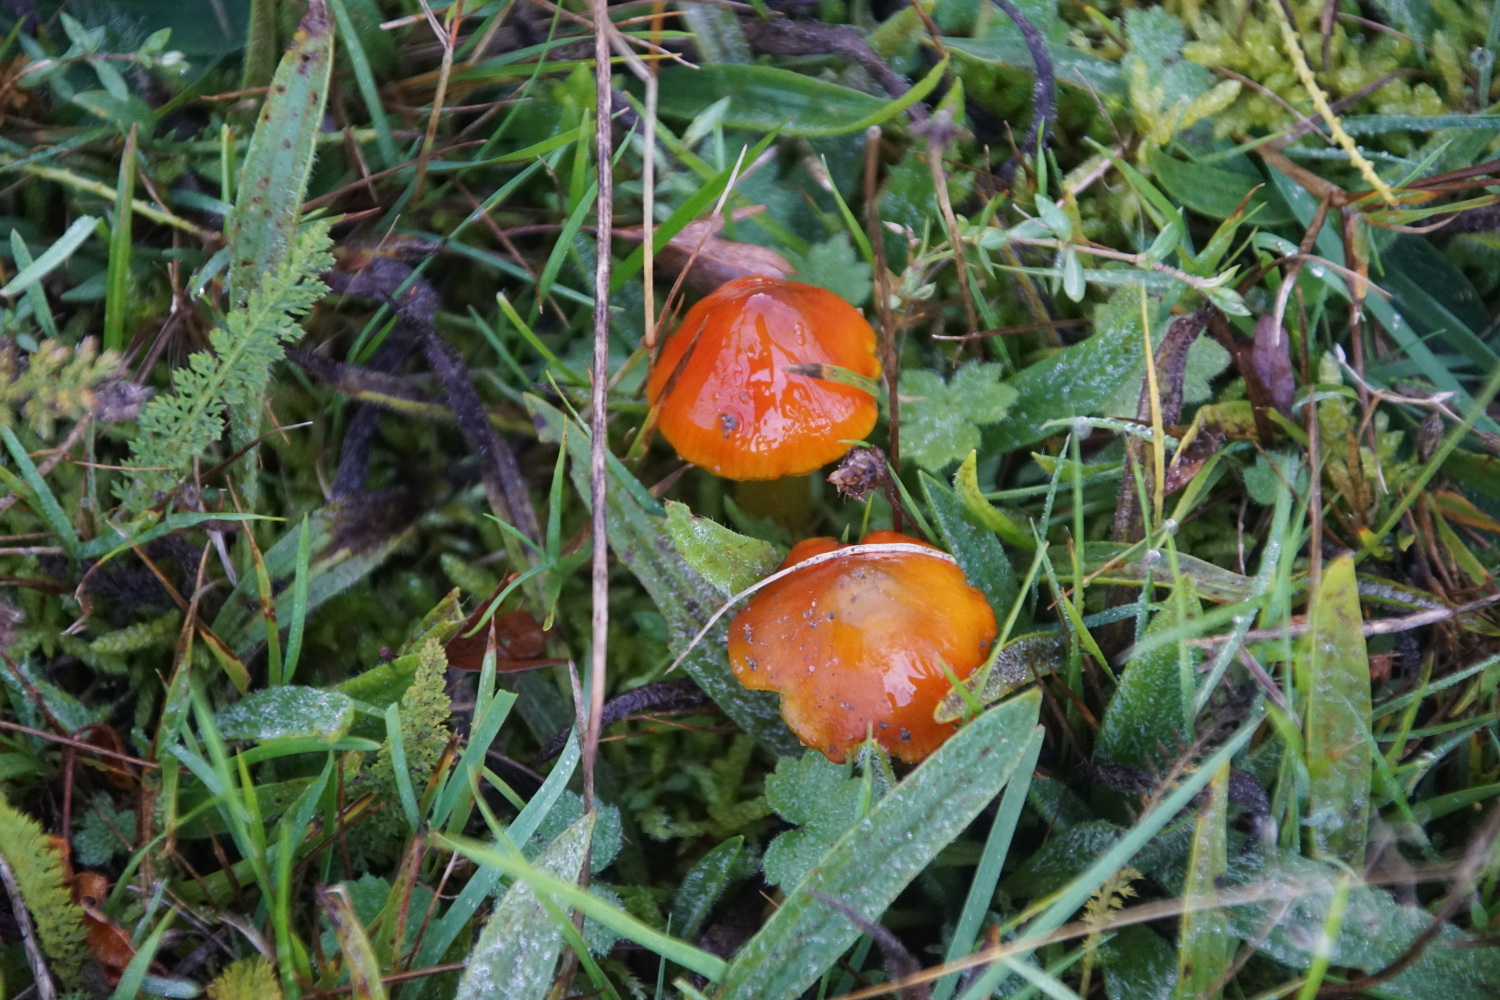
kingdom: Fungi
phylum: Basidiomycota
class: Agaricomycetes
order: Agaricales
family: Hygrophoraceae
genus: Hygrocybe
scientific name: Hygrocybe conica
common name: kegle-vokshat
